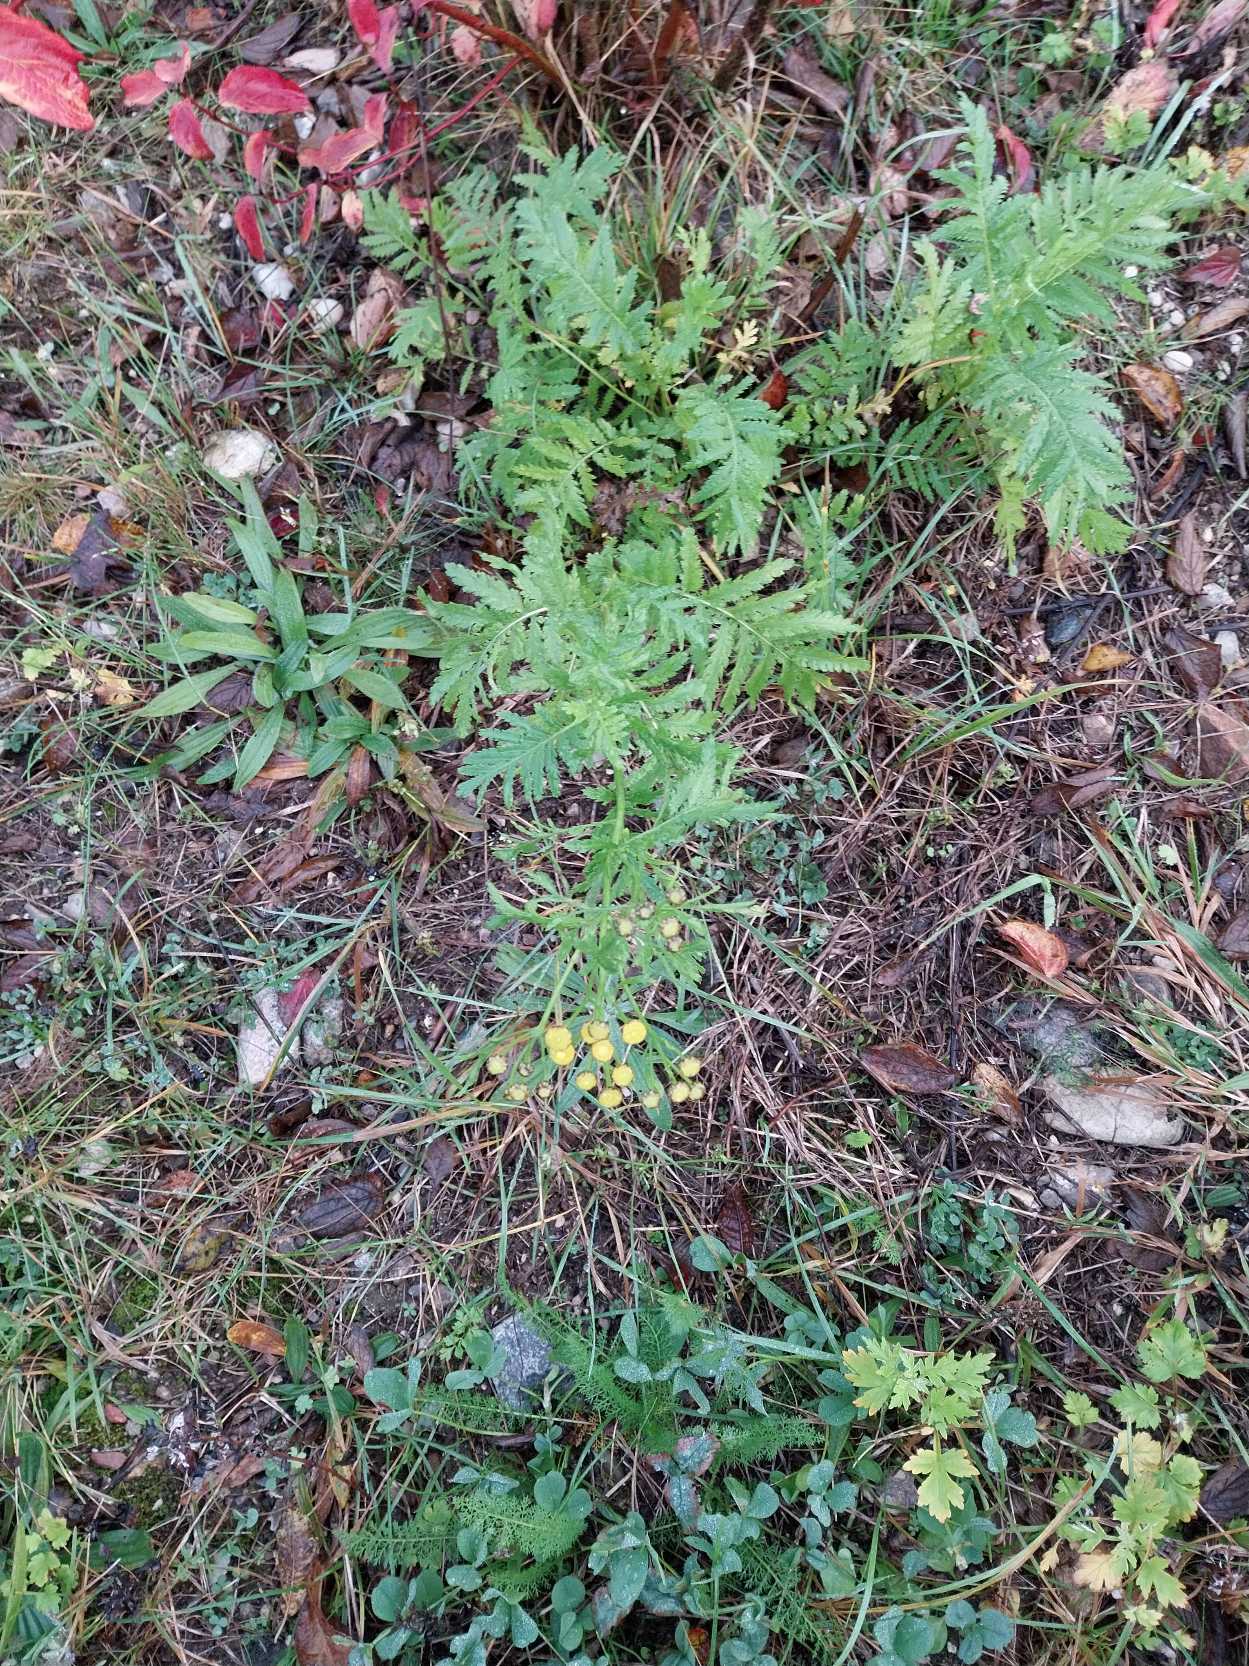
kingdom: Plantae
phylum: Tracheophyta
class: Magnoliopsida
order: Asterales
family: Asteraceae
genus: Tanacetum
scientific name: Tanacetum vulgare
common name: Rejnfan
